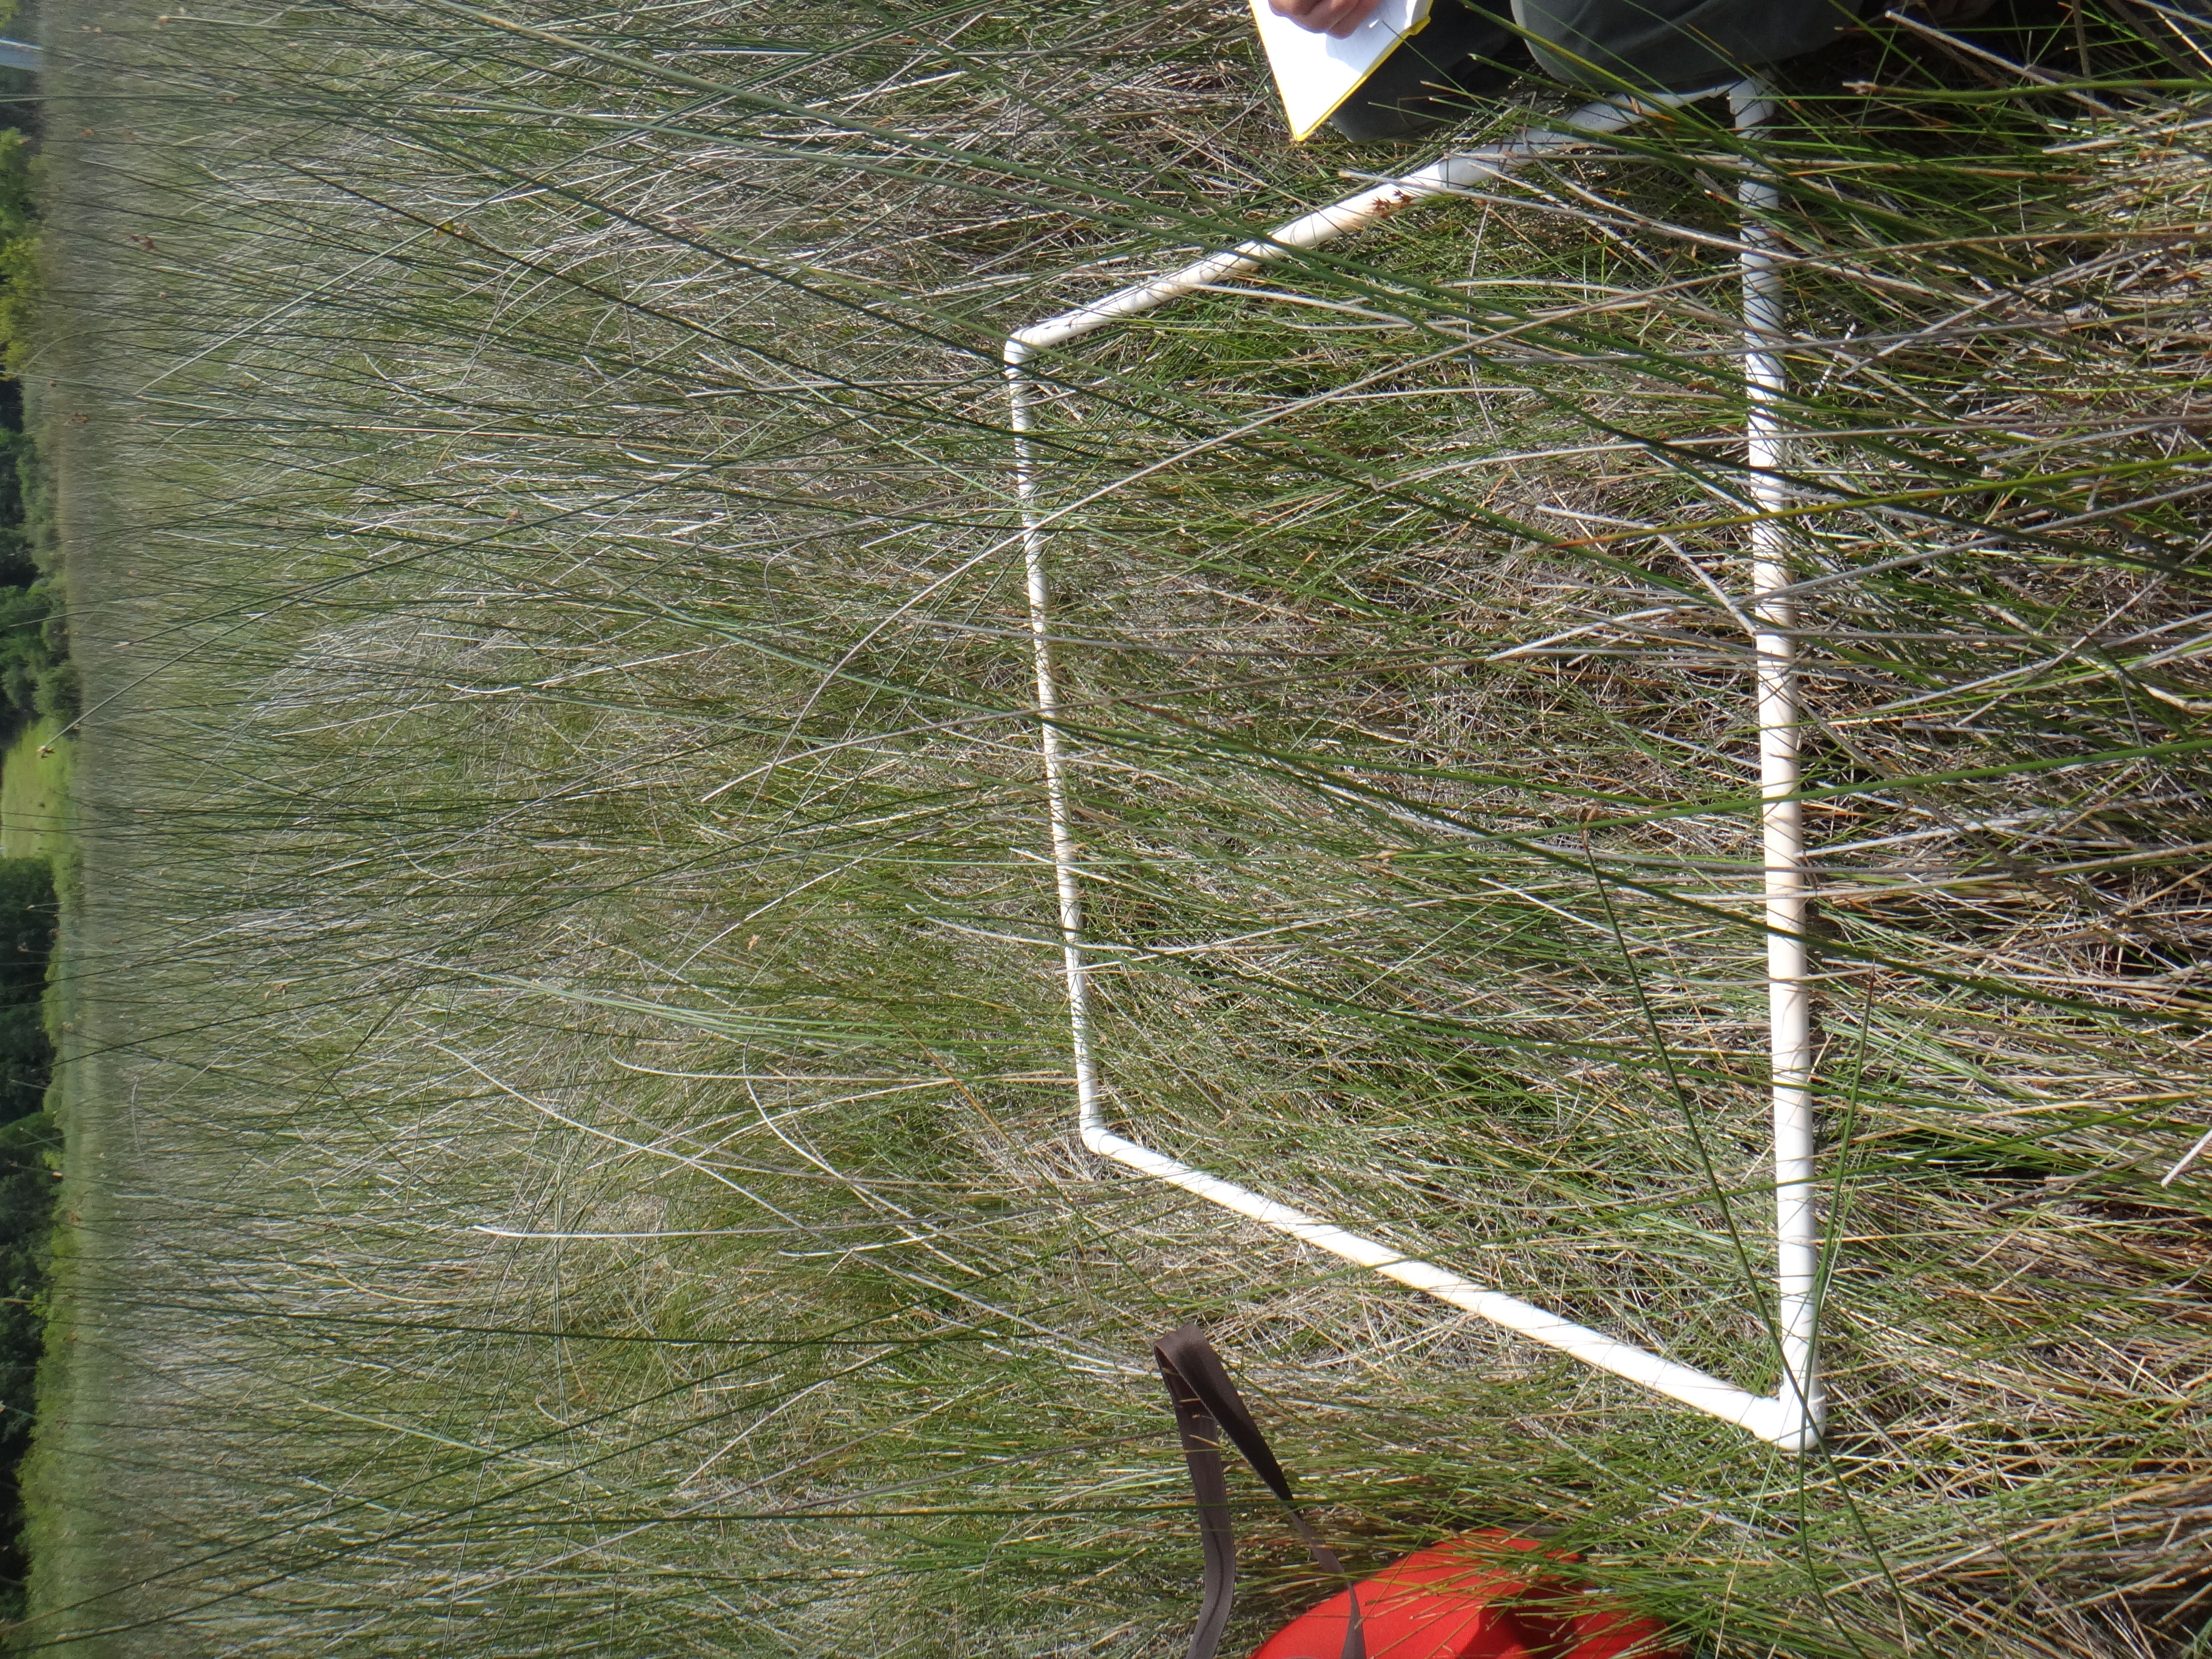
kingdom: Plantae
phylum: Tracheophyta
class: Liliopsida
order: Poales
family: Cyperaceae
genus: Cladium
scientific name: Cladium mariscoides
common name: Smooth sawgrass
